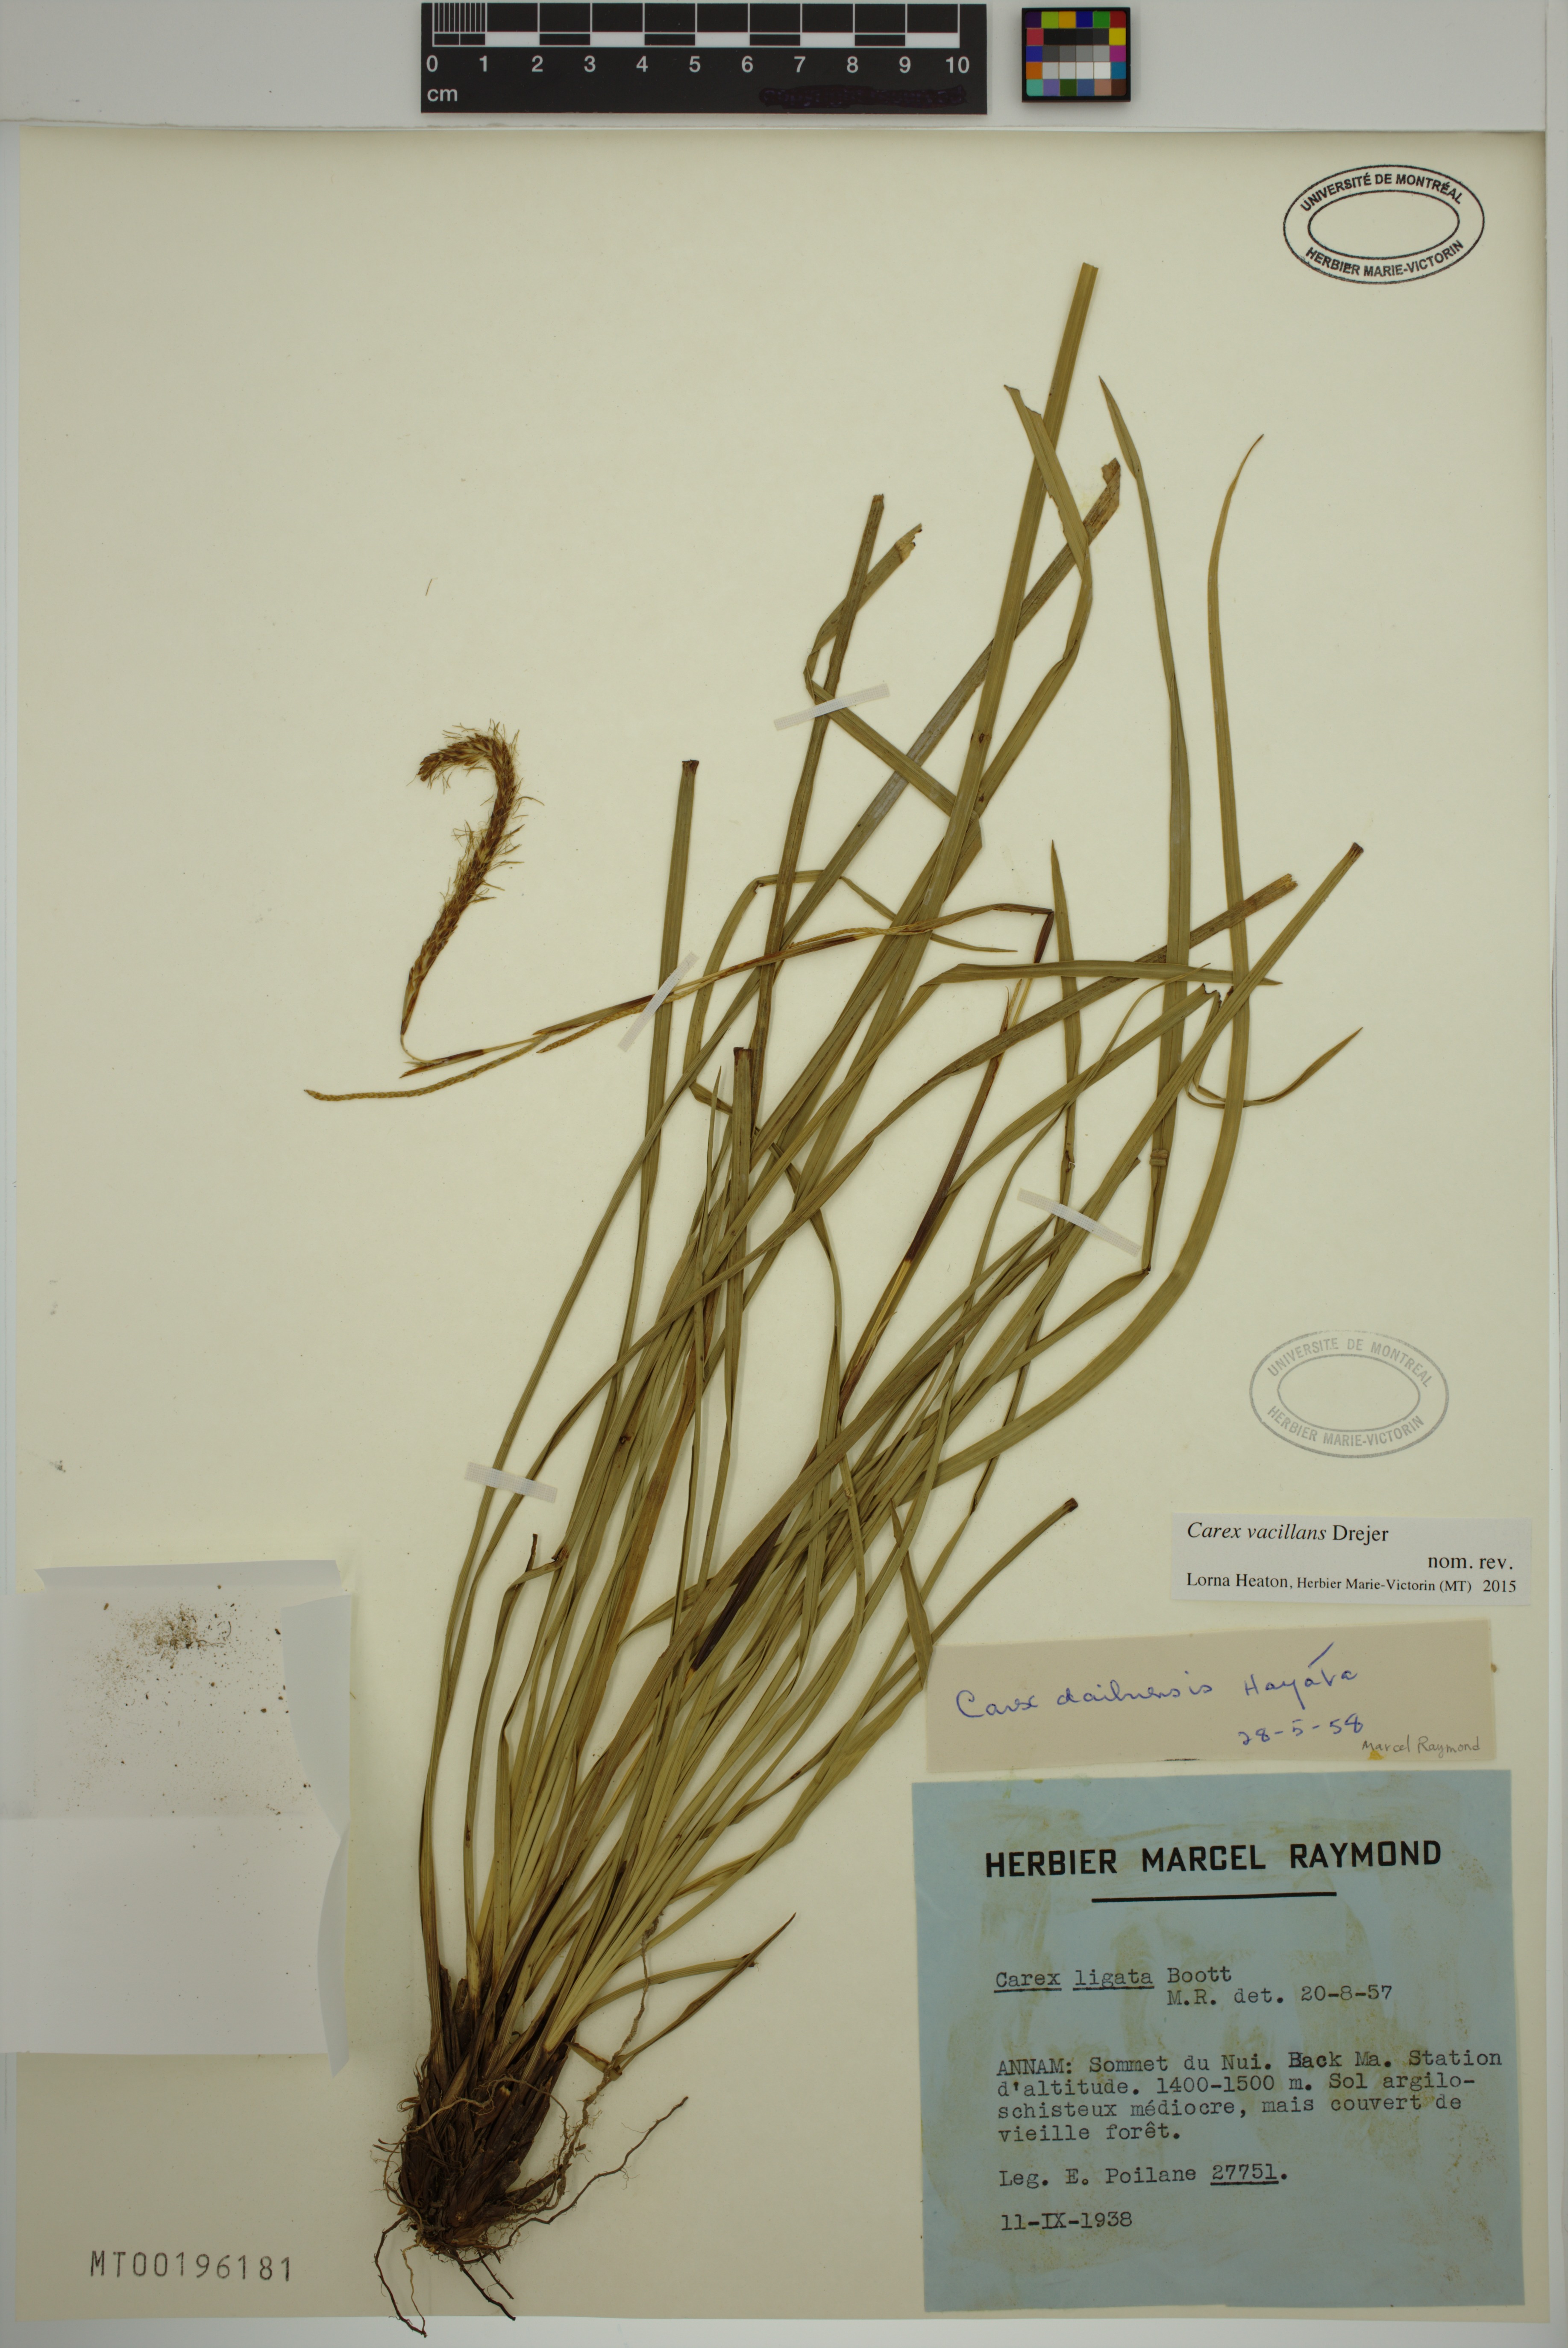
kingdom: Plantae
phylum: Tracheophyta
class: Liliopsida
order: Poales
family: Cyperaceae
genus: Carex
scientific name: Carex vacillans
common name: Sedge
